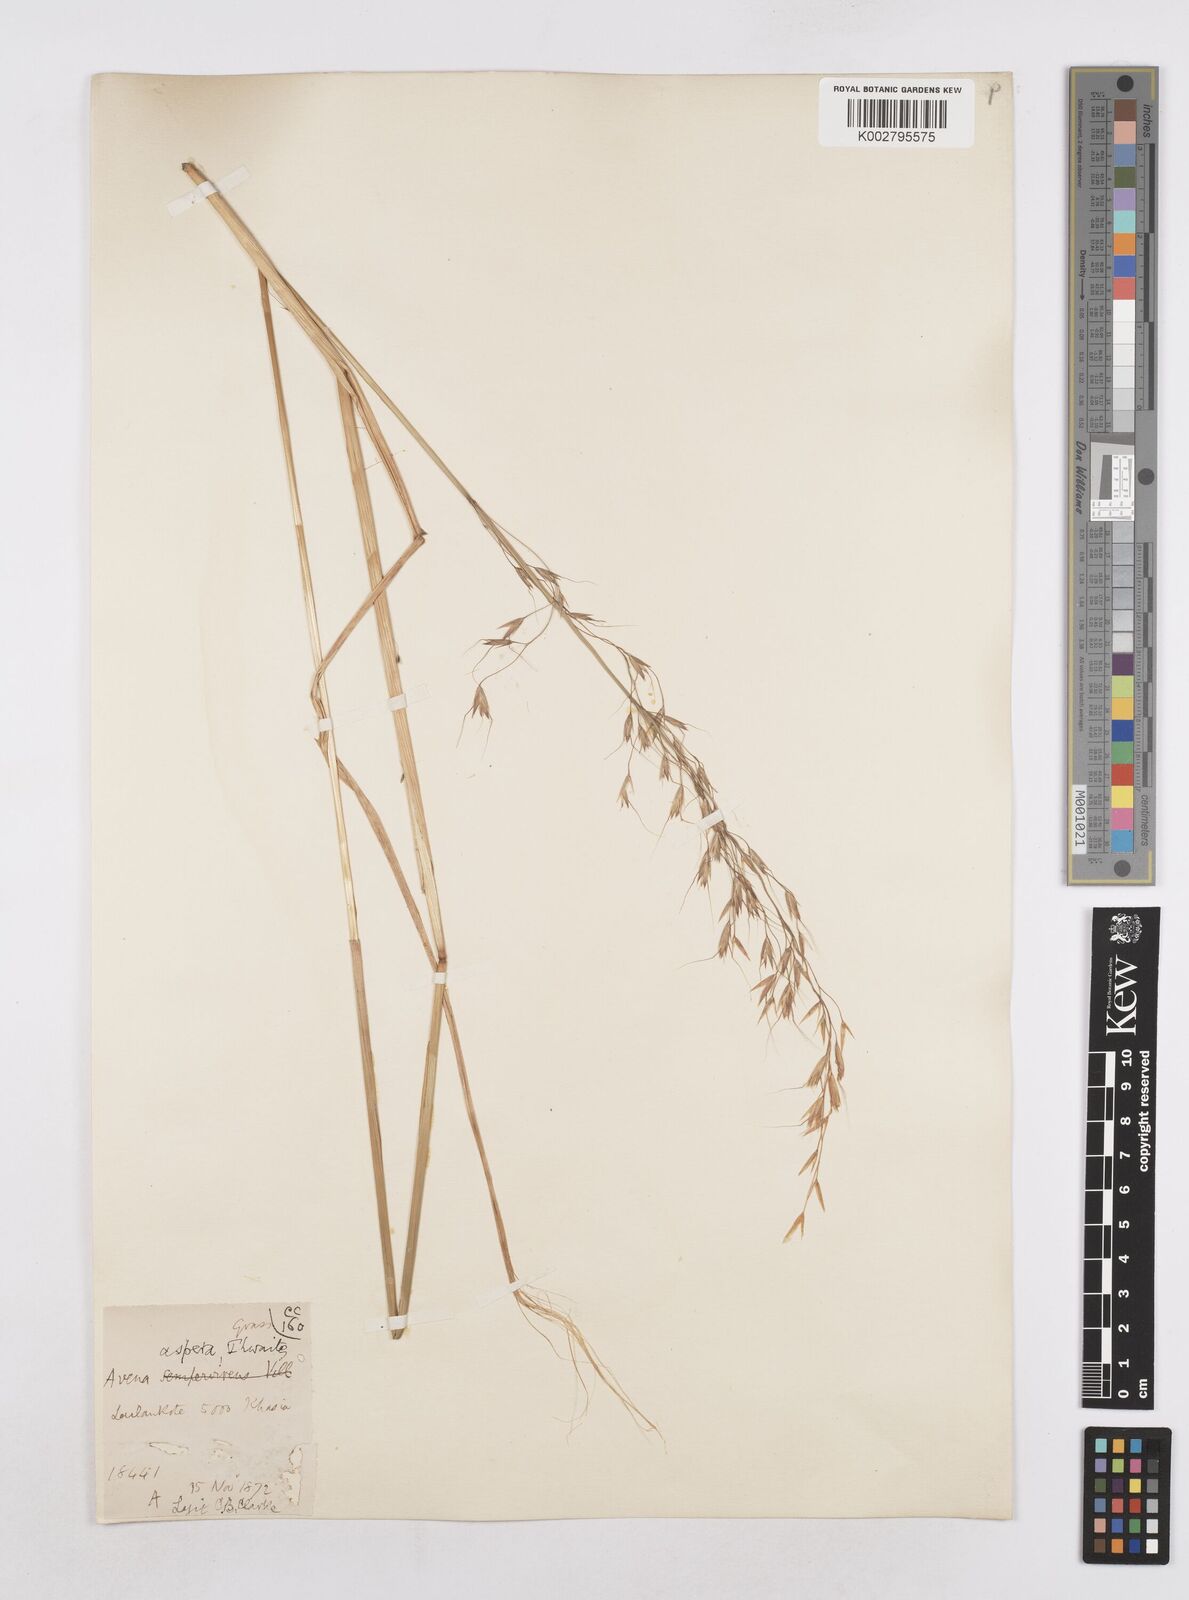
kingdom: Plantae
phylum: Tracheophyta
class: Liliopsida
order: Poales
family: Poaceae
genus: Trisetopsis
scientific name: Trisetopsis junghuhnii
